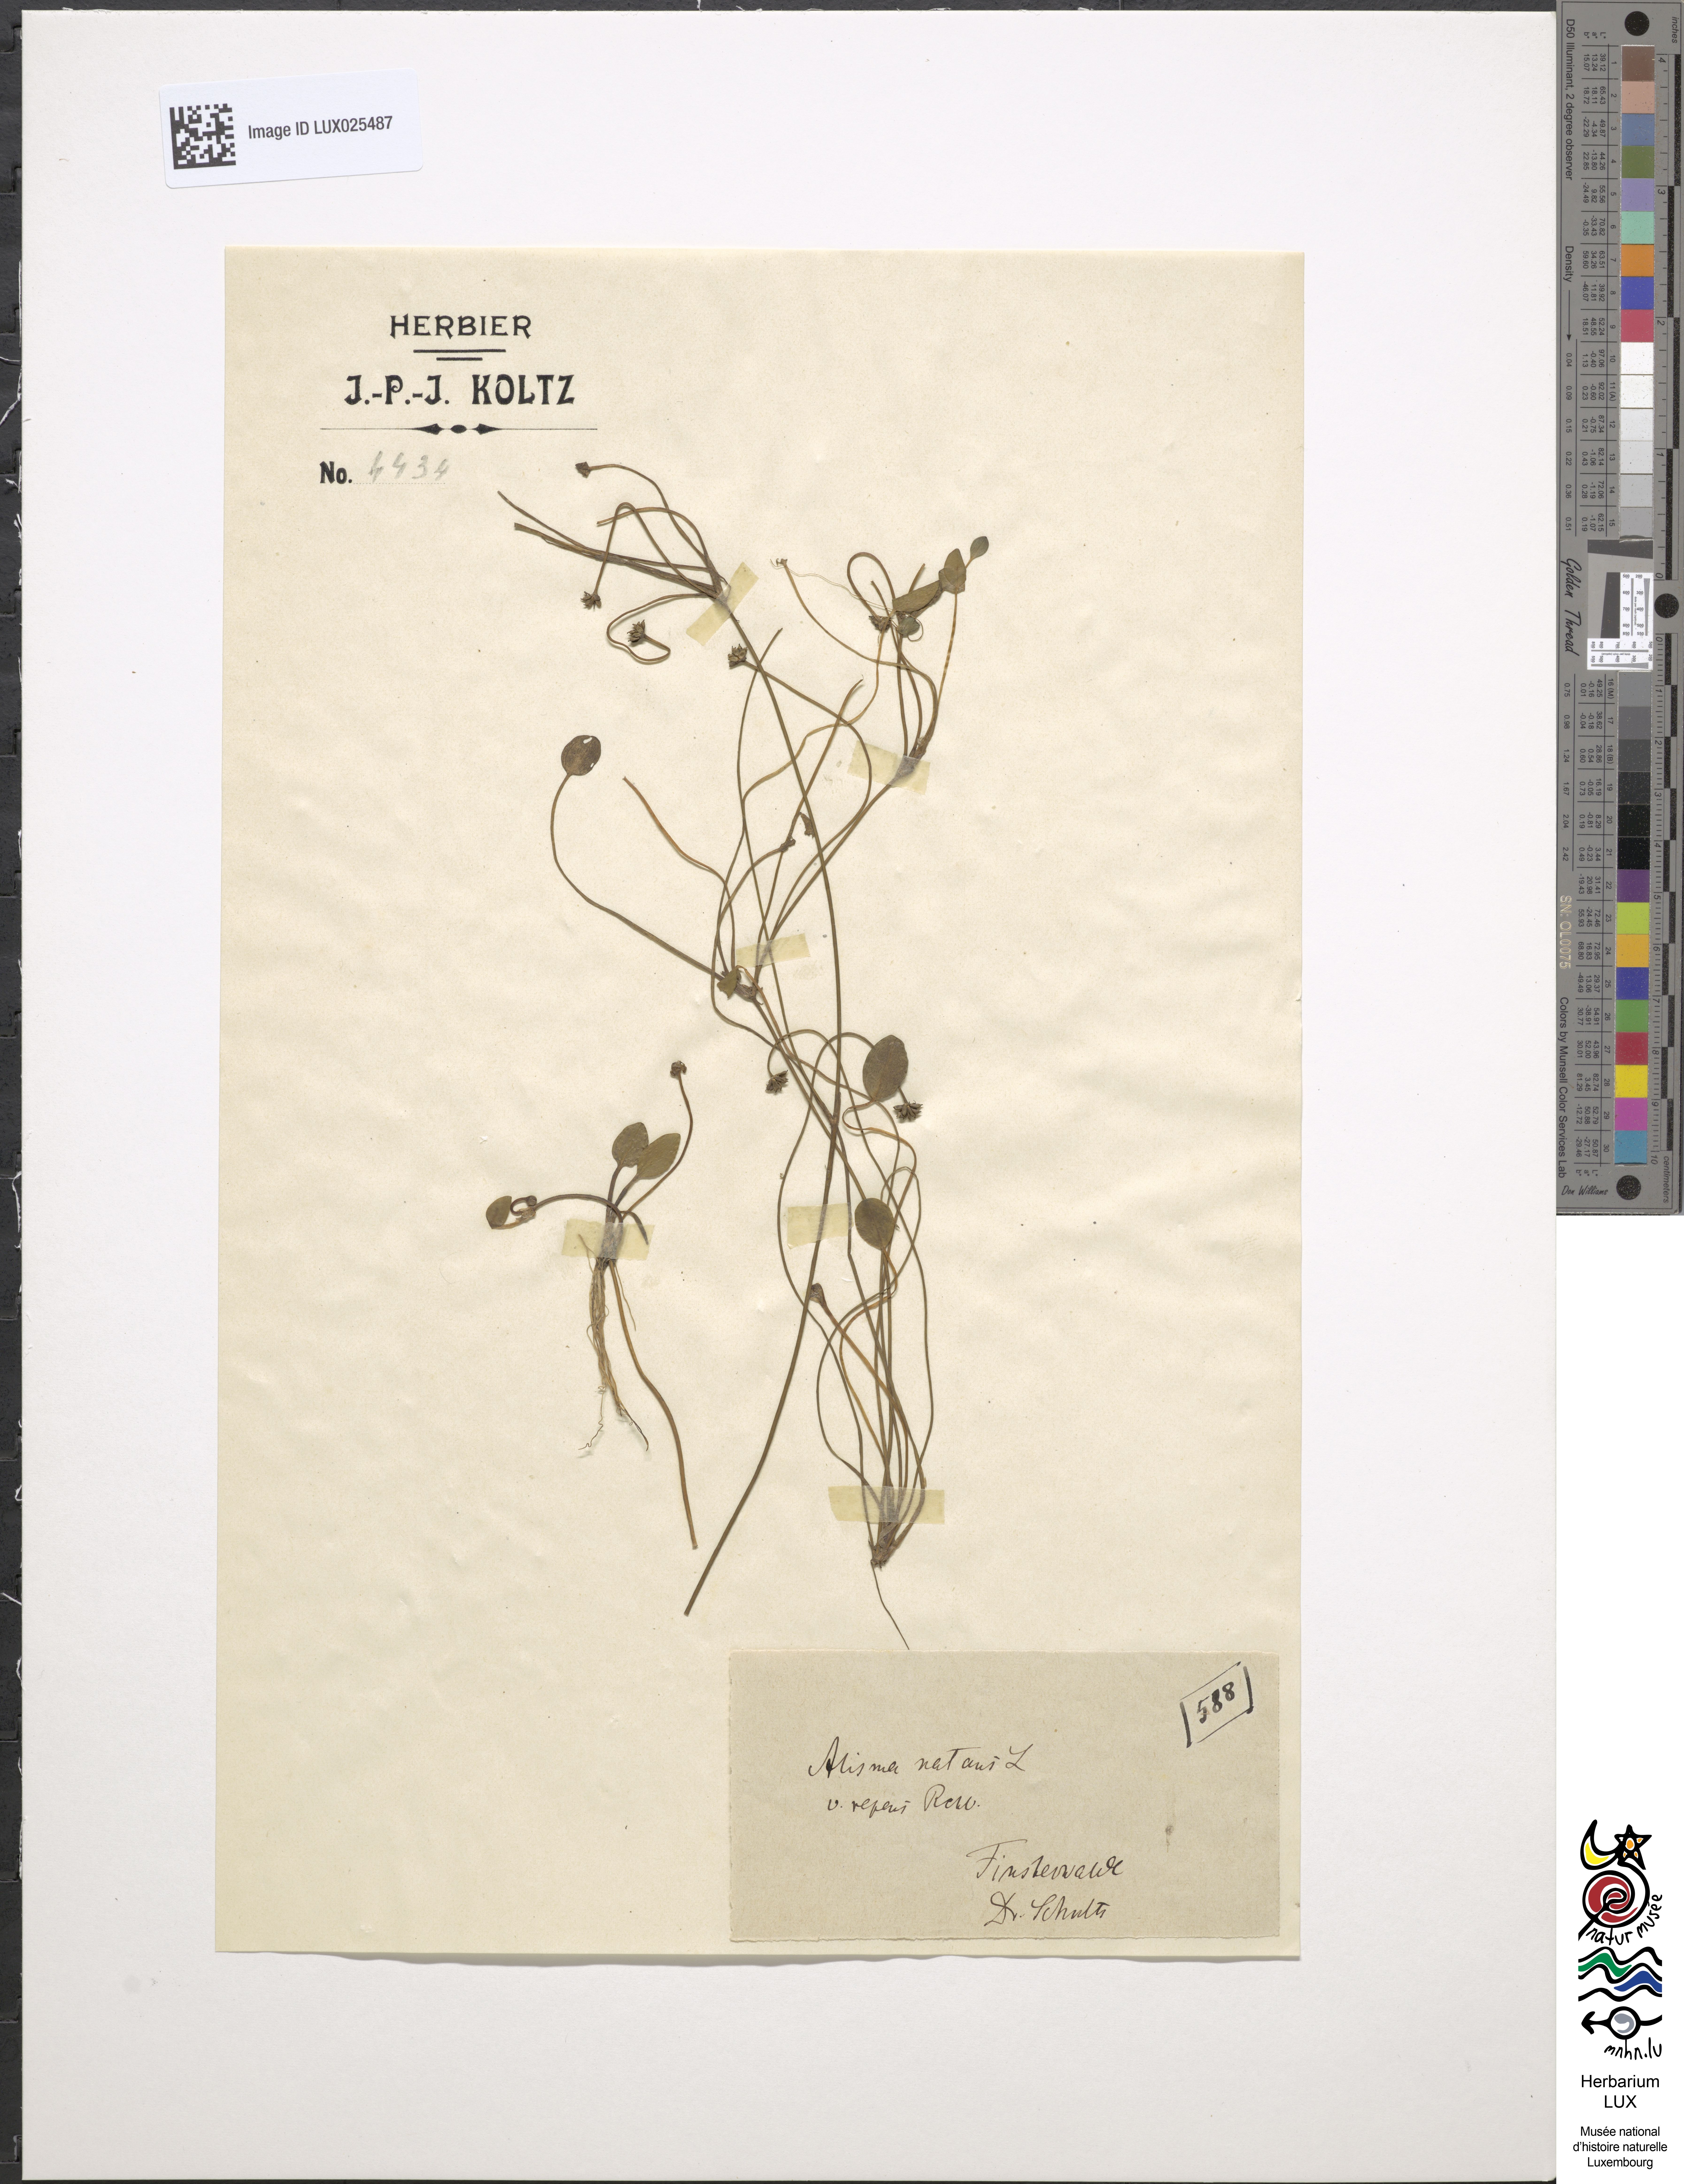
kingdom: Plantae
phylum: Tracheophyta
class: Liliopsida
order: Alismatales
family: Alismataceae
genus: Luronium
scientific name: Luronium natans
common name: Floating water-plantain
